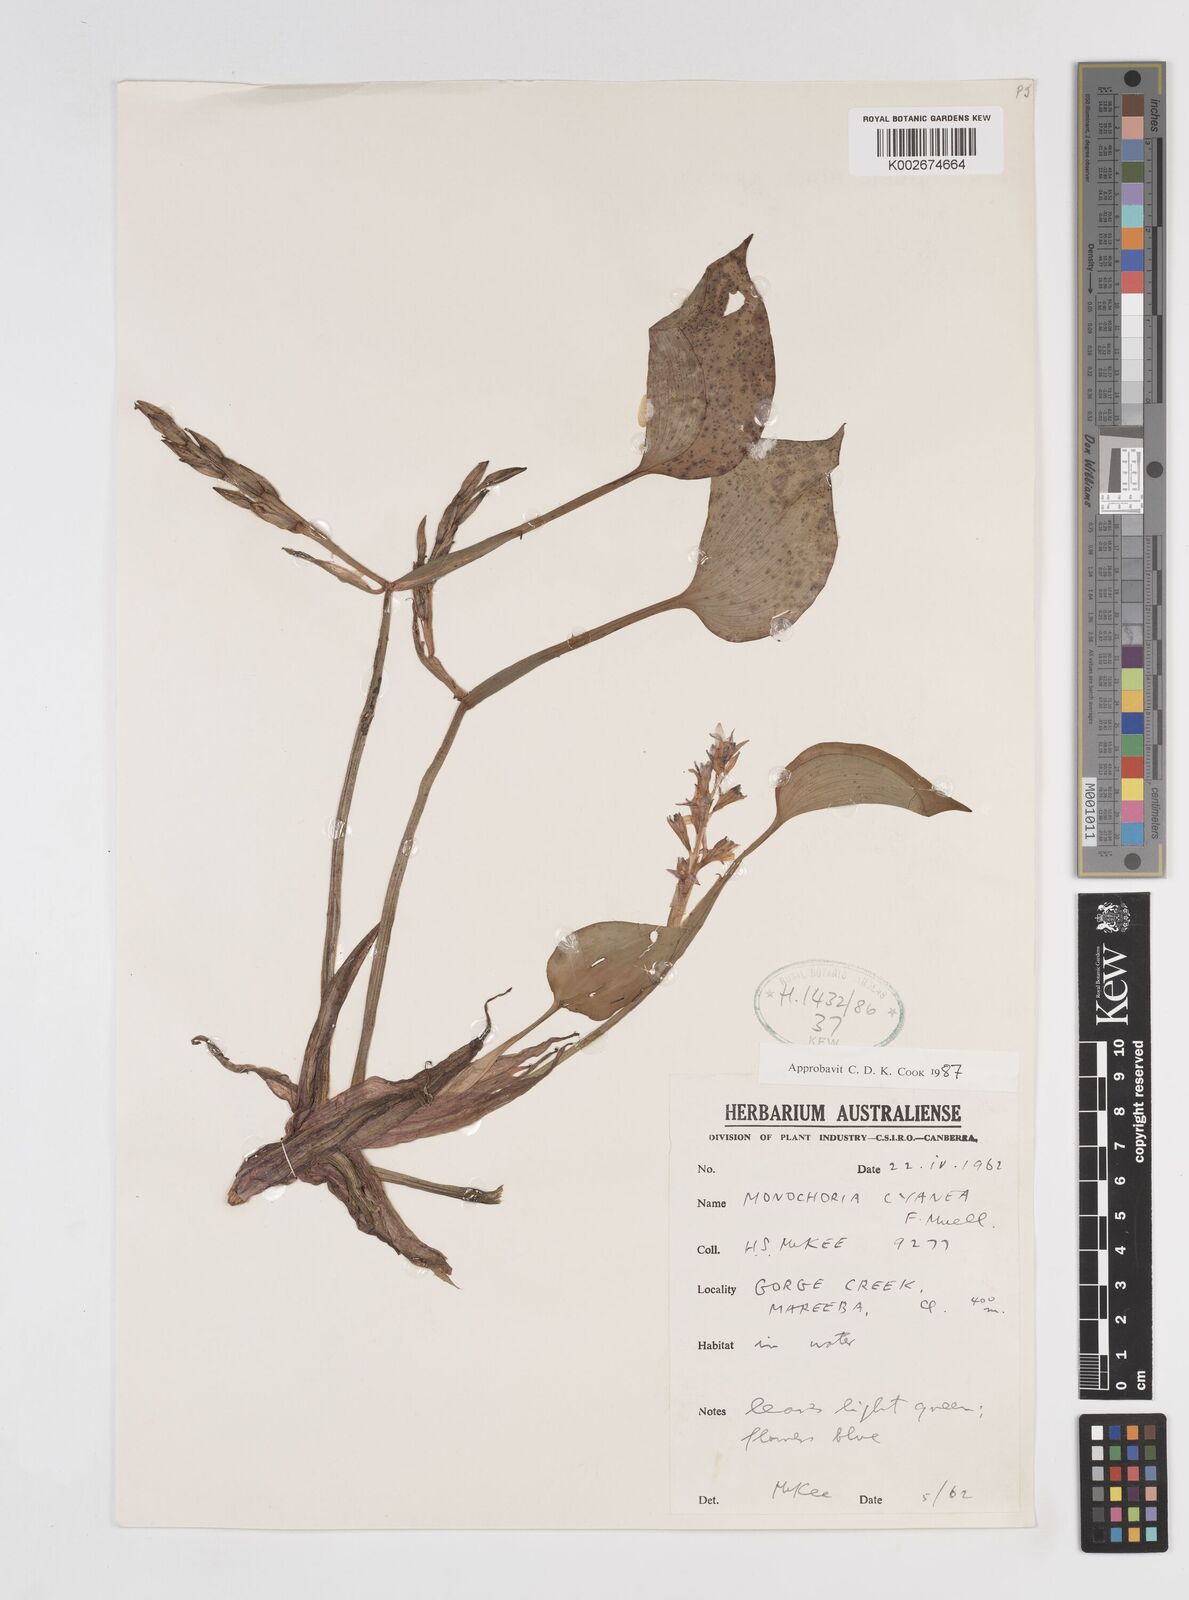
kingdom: Plantae
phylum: Tracheophyta
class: Liliopsida
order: Commelinales
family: Pontederiaceae
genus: Pontederia
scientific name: Pontederia cyanea
